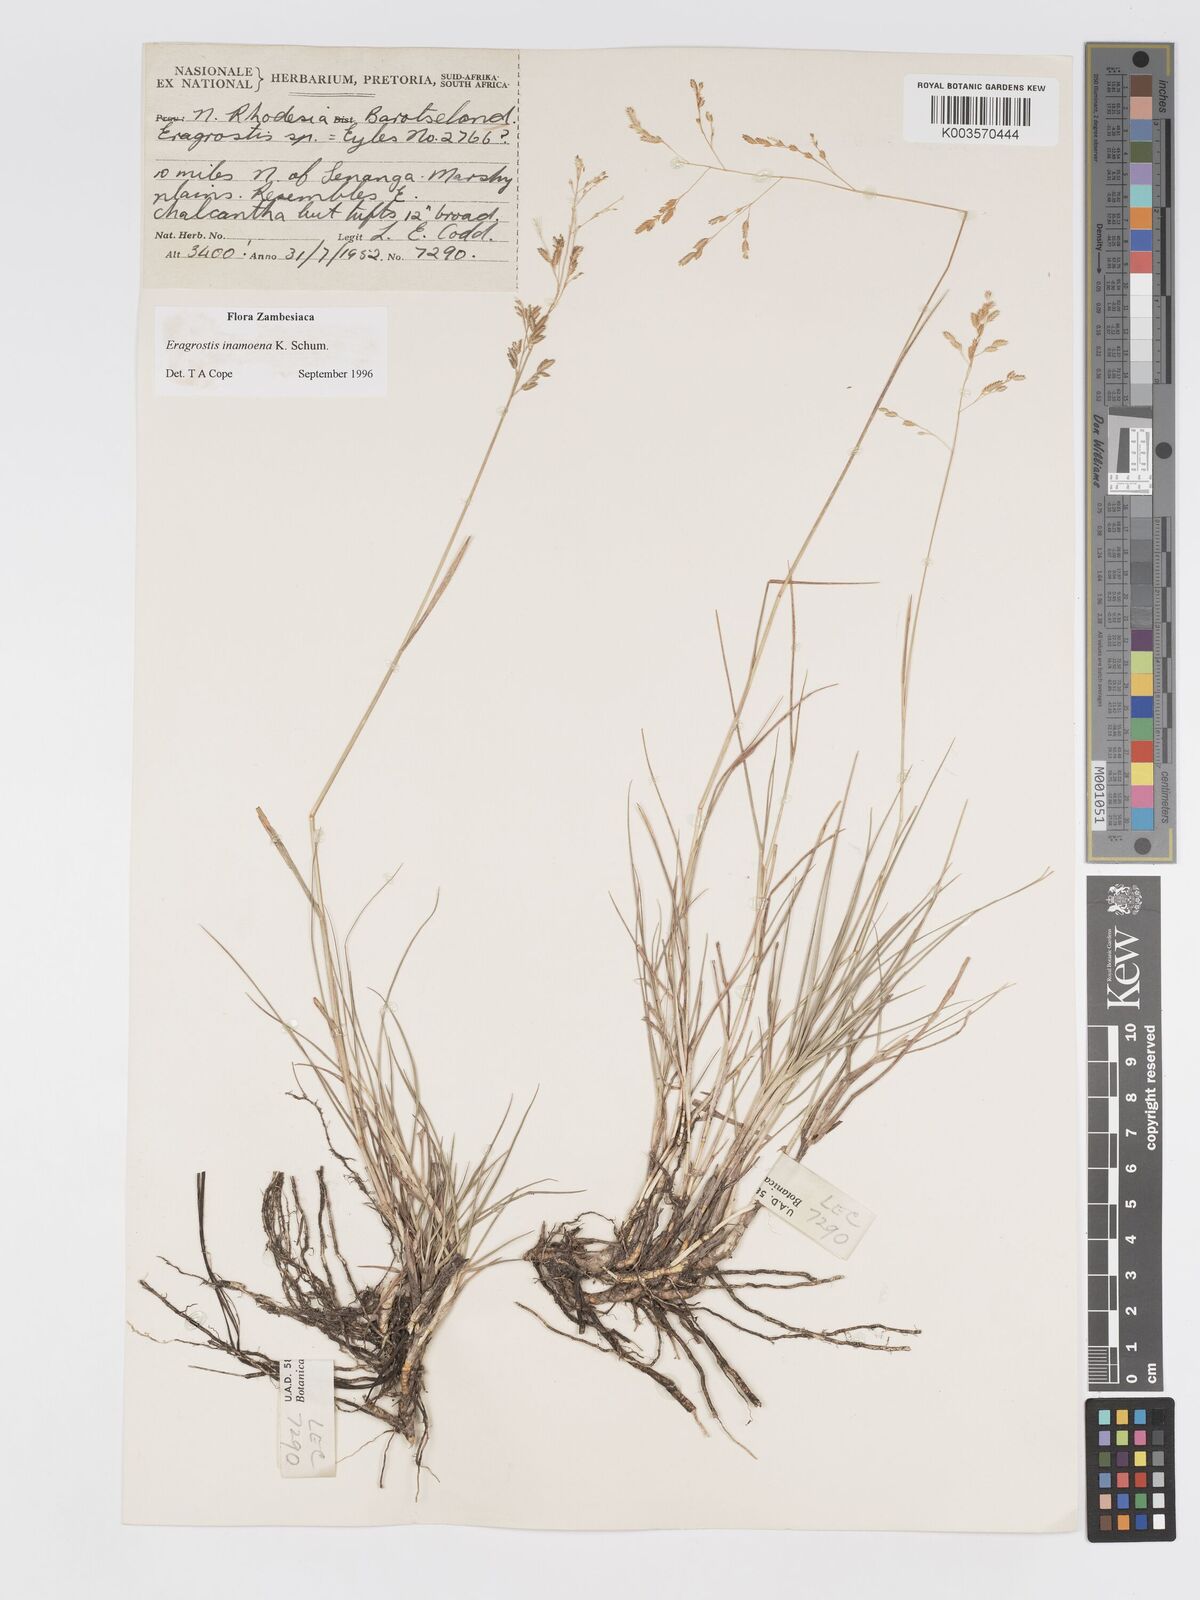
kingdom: Plantae
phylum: Tracheophyta
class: Liliopsida
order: Poales
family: Poaceae
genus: Eragrostis
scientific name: Eragrostis inamoena
